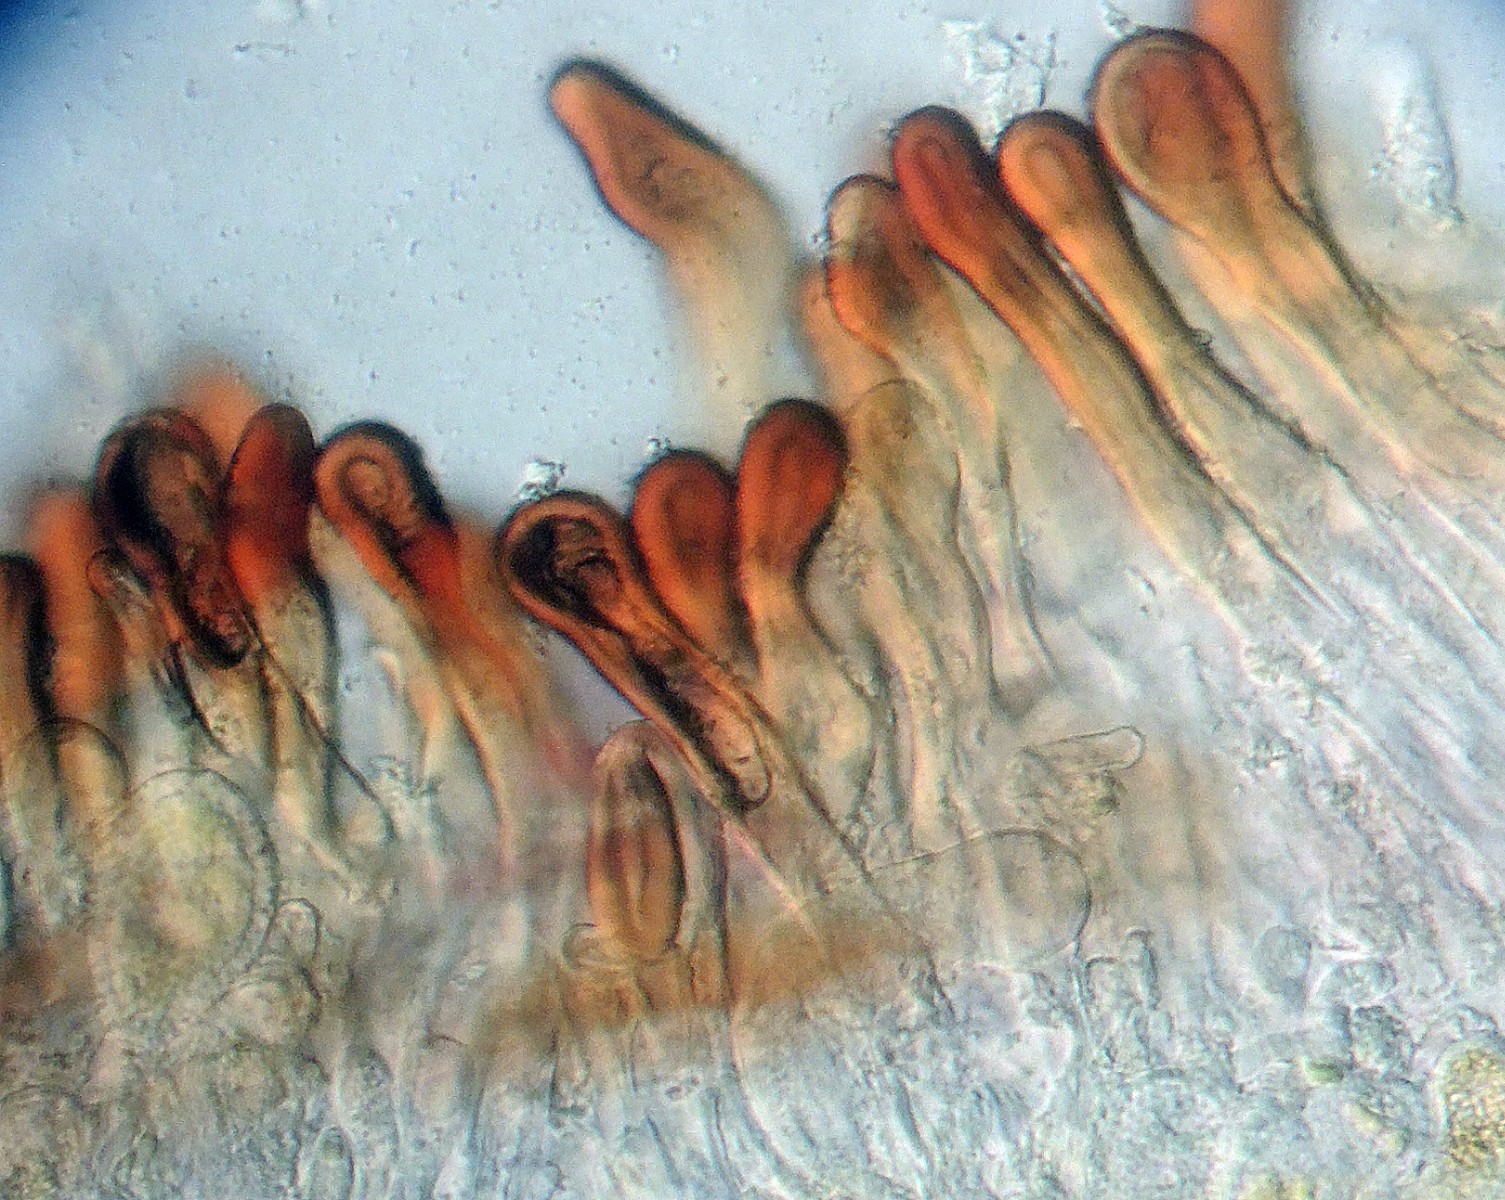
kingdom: Fungi
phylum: Basidiomycota
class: Pucciniomycetes
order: Pucciniales
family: Pucciniaceae
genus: Peristemma
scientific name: Peristemma pseudosphaeria
